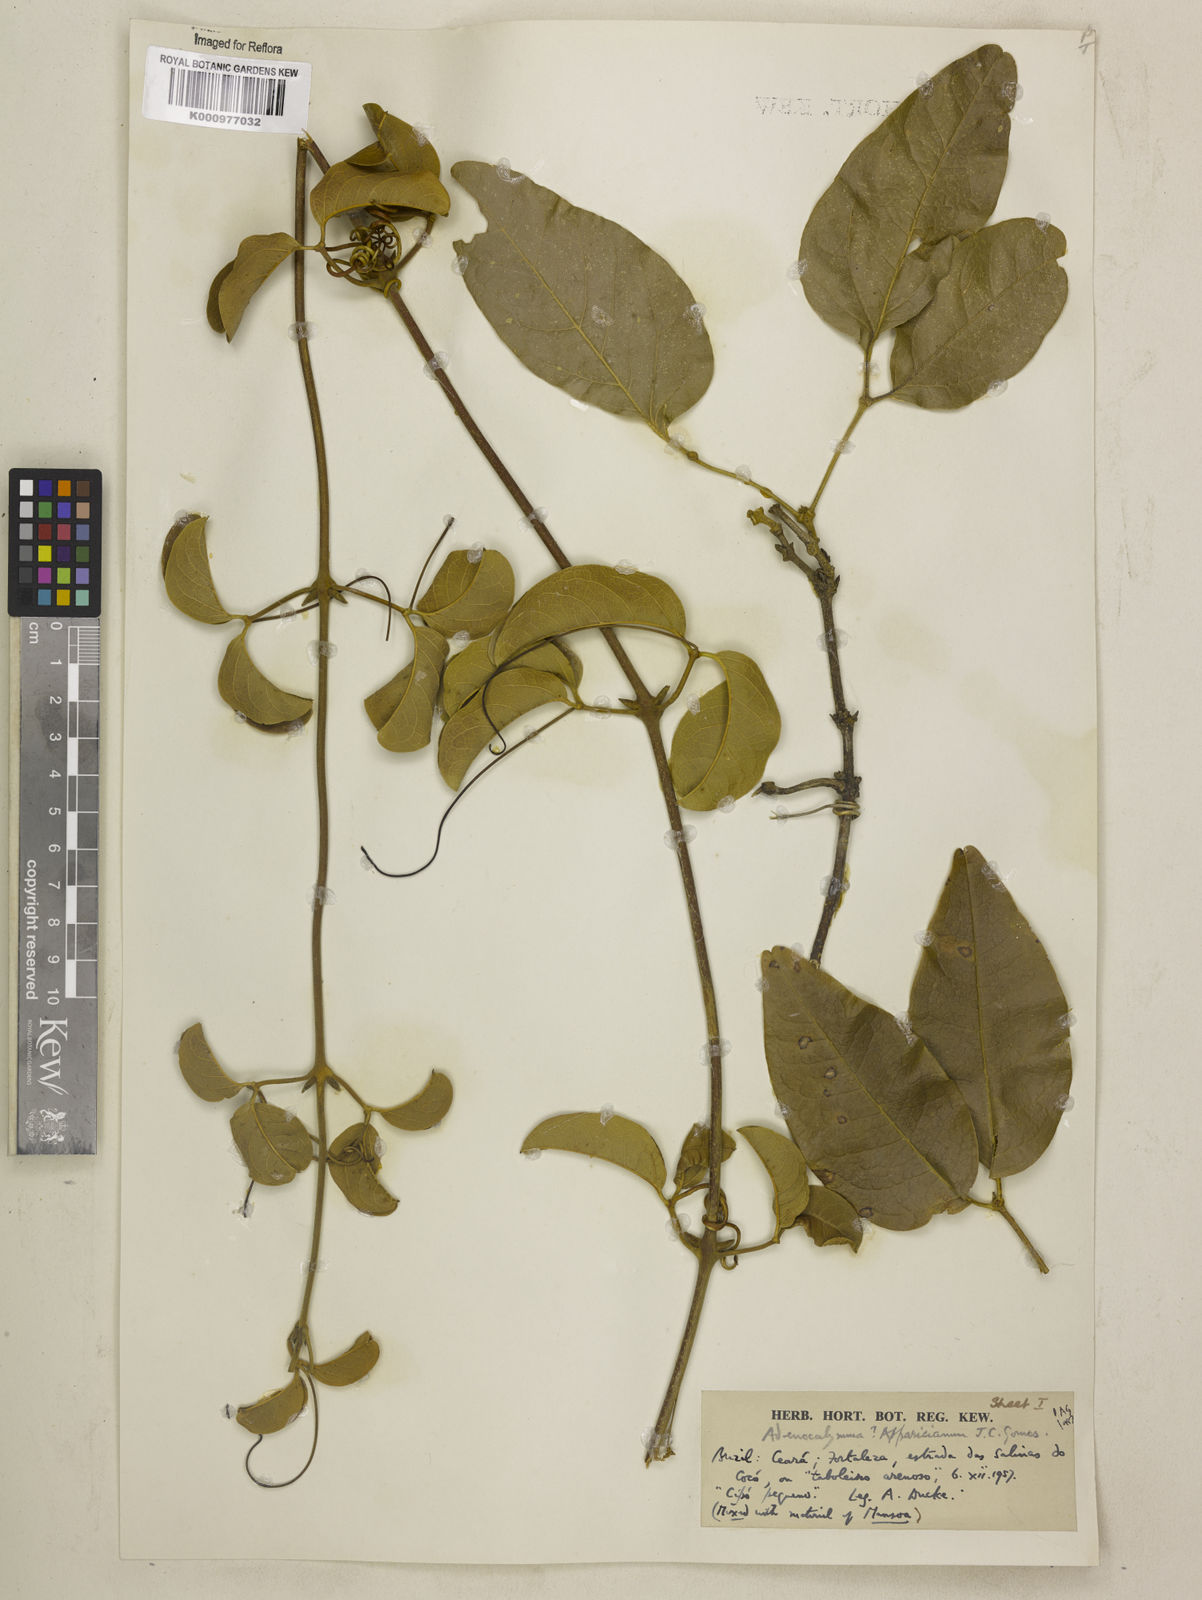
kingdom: Plantae
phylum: Tracheophyta
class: Magnoliopsida
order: Lamiales
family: Bignoniaceae
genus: Adenocalymma
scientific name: Adenocalymma apparicianum
